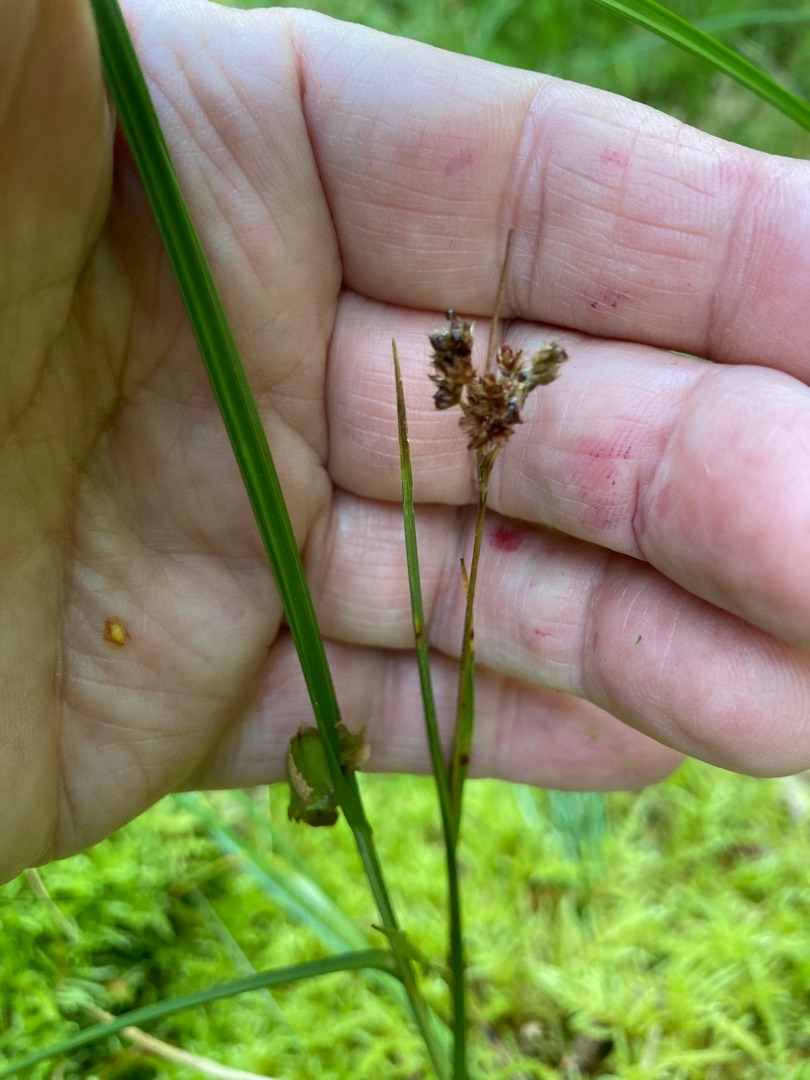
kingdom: Plantae
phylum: Tracheophyta
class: Liliopsida
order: Poales
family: Juncaceae
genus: Luzula
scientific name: Luzula multiflora
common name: Mangeblomstret frytle
